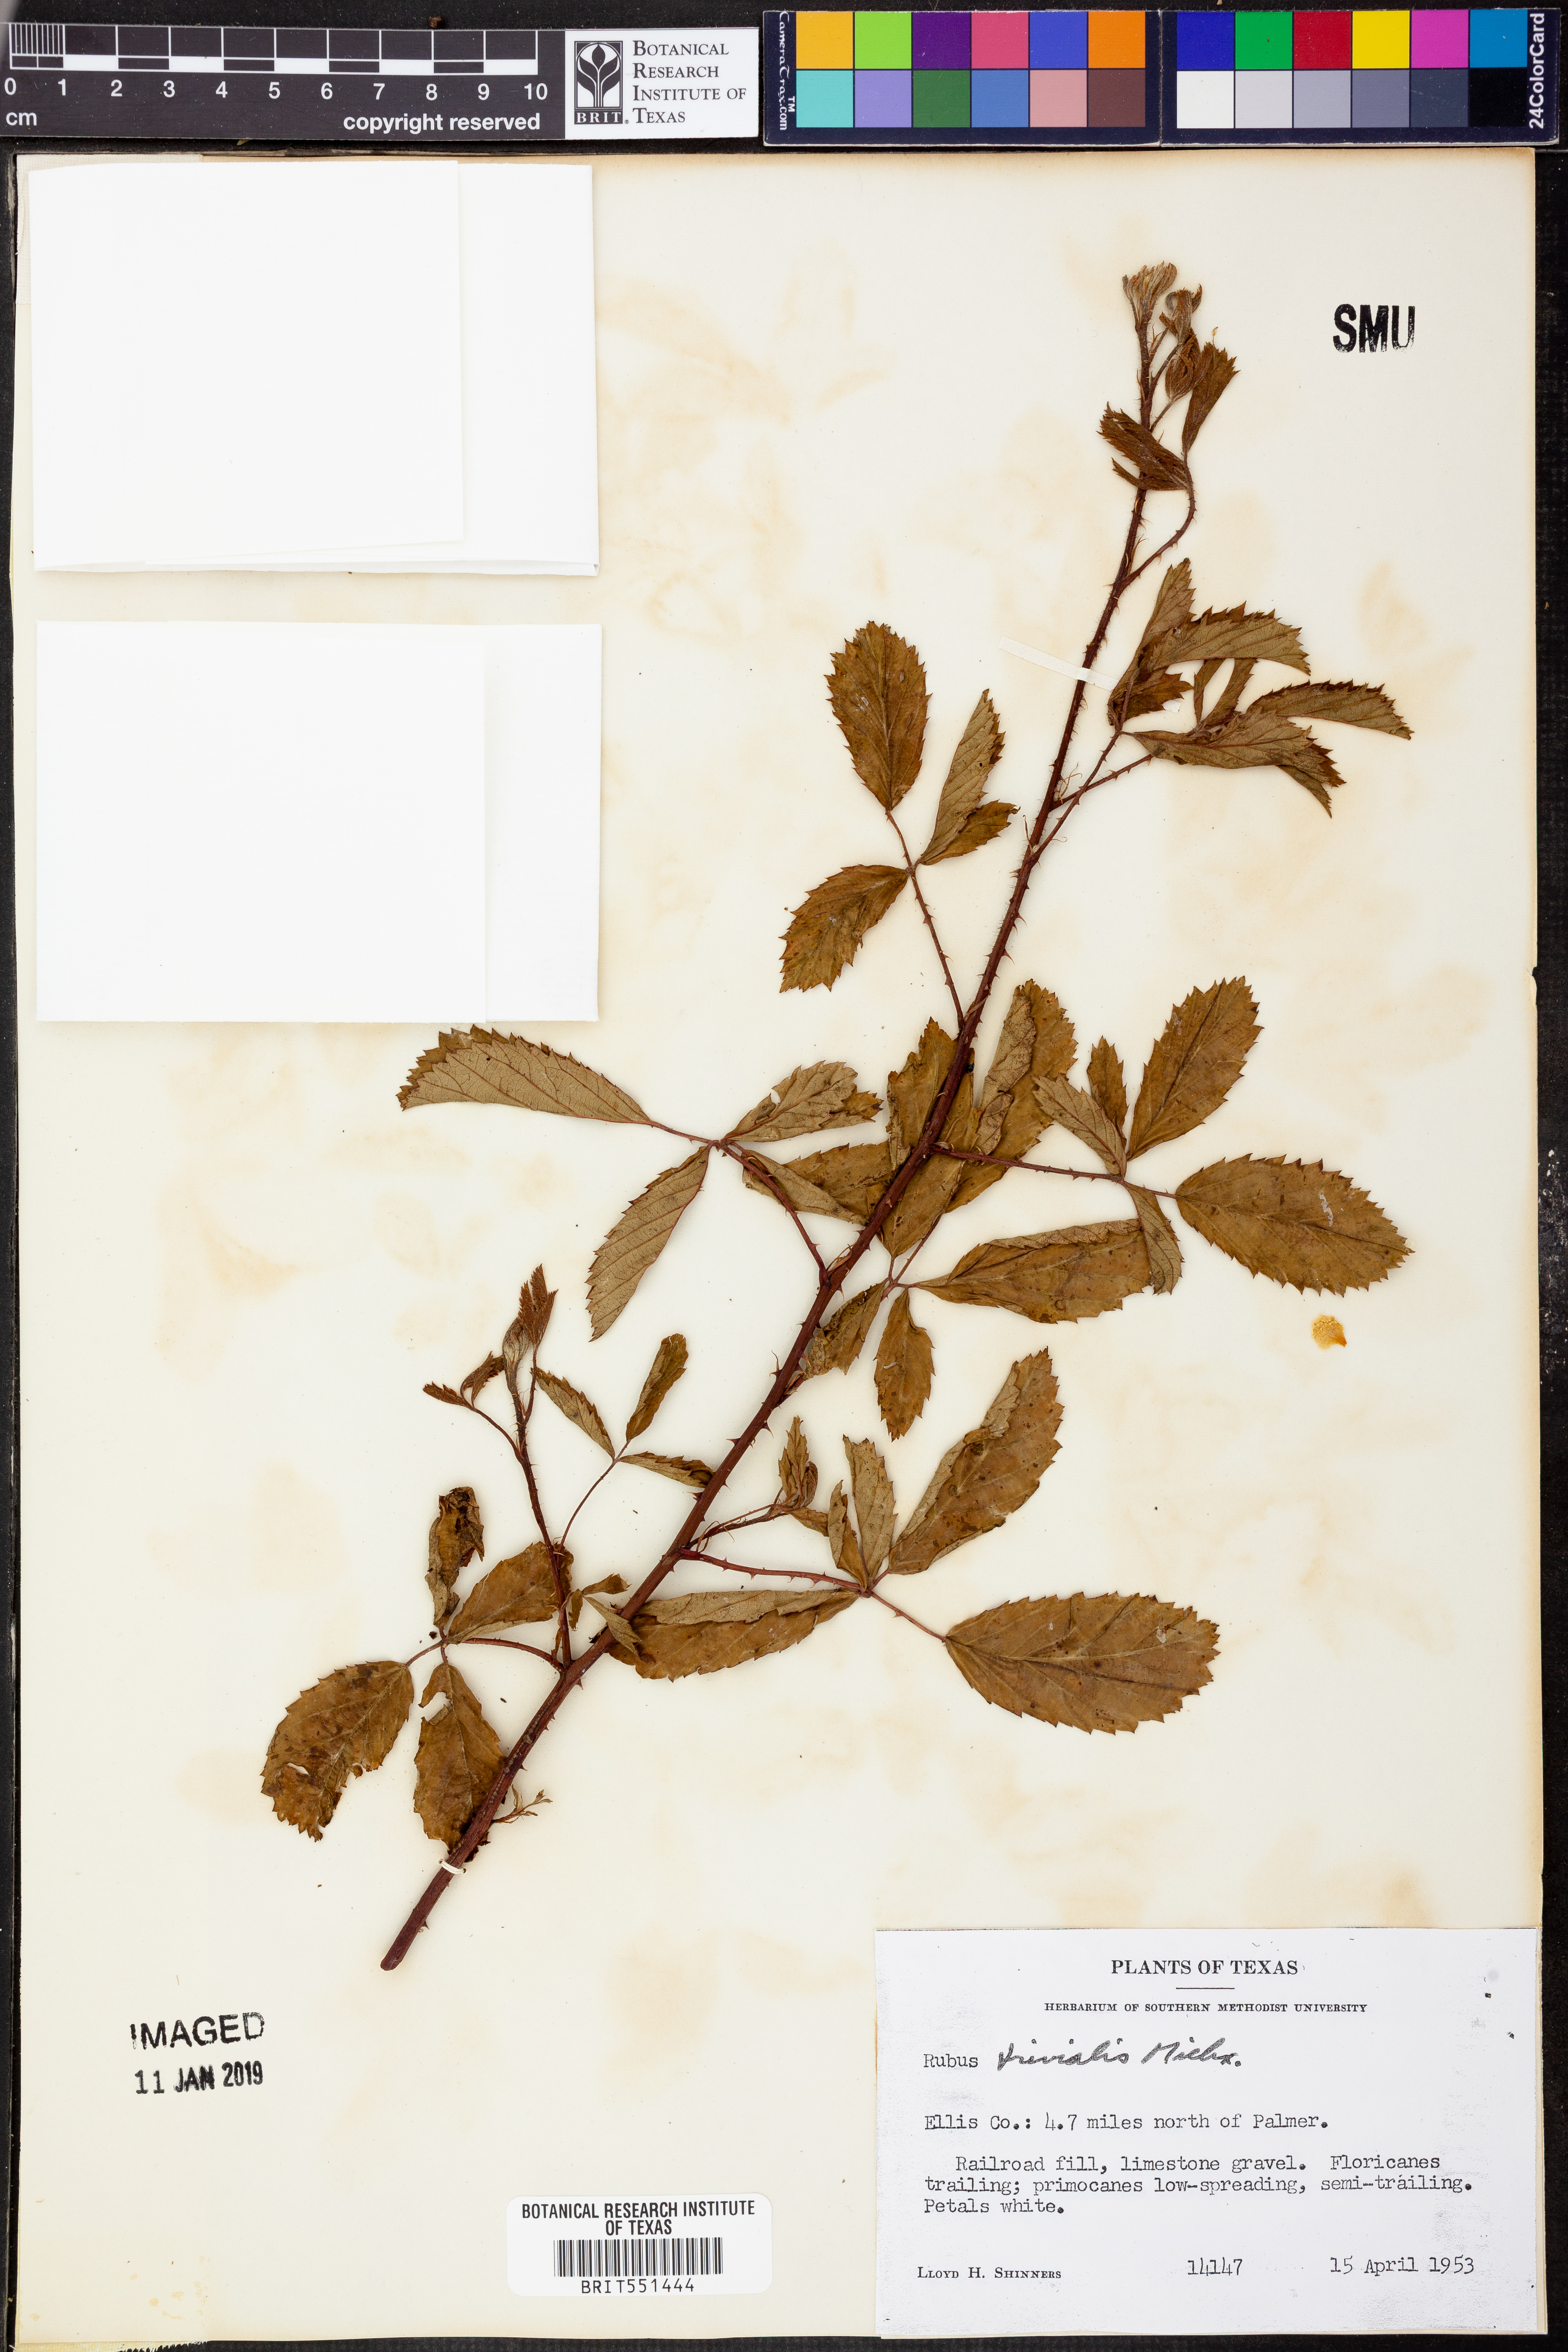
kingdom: Plantae
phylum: Tracheophyta
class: Magnoliopsida
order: Rosales
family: Rosaceae
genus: Rubus
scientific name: Rubus trivialis
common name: Southern dewberry
